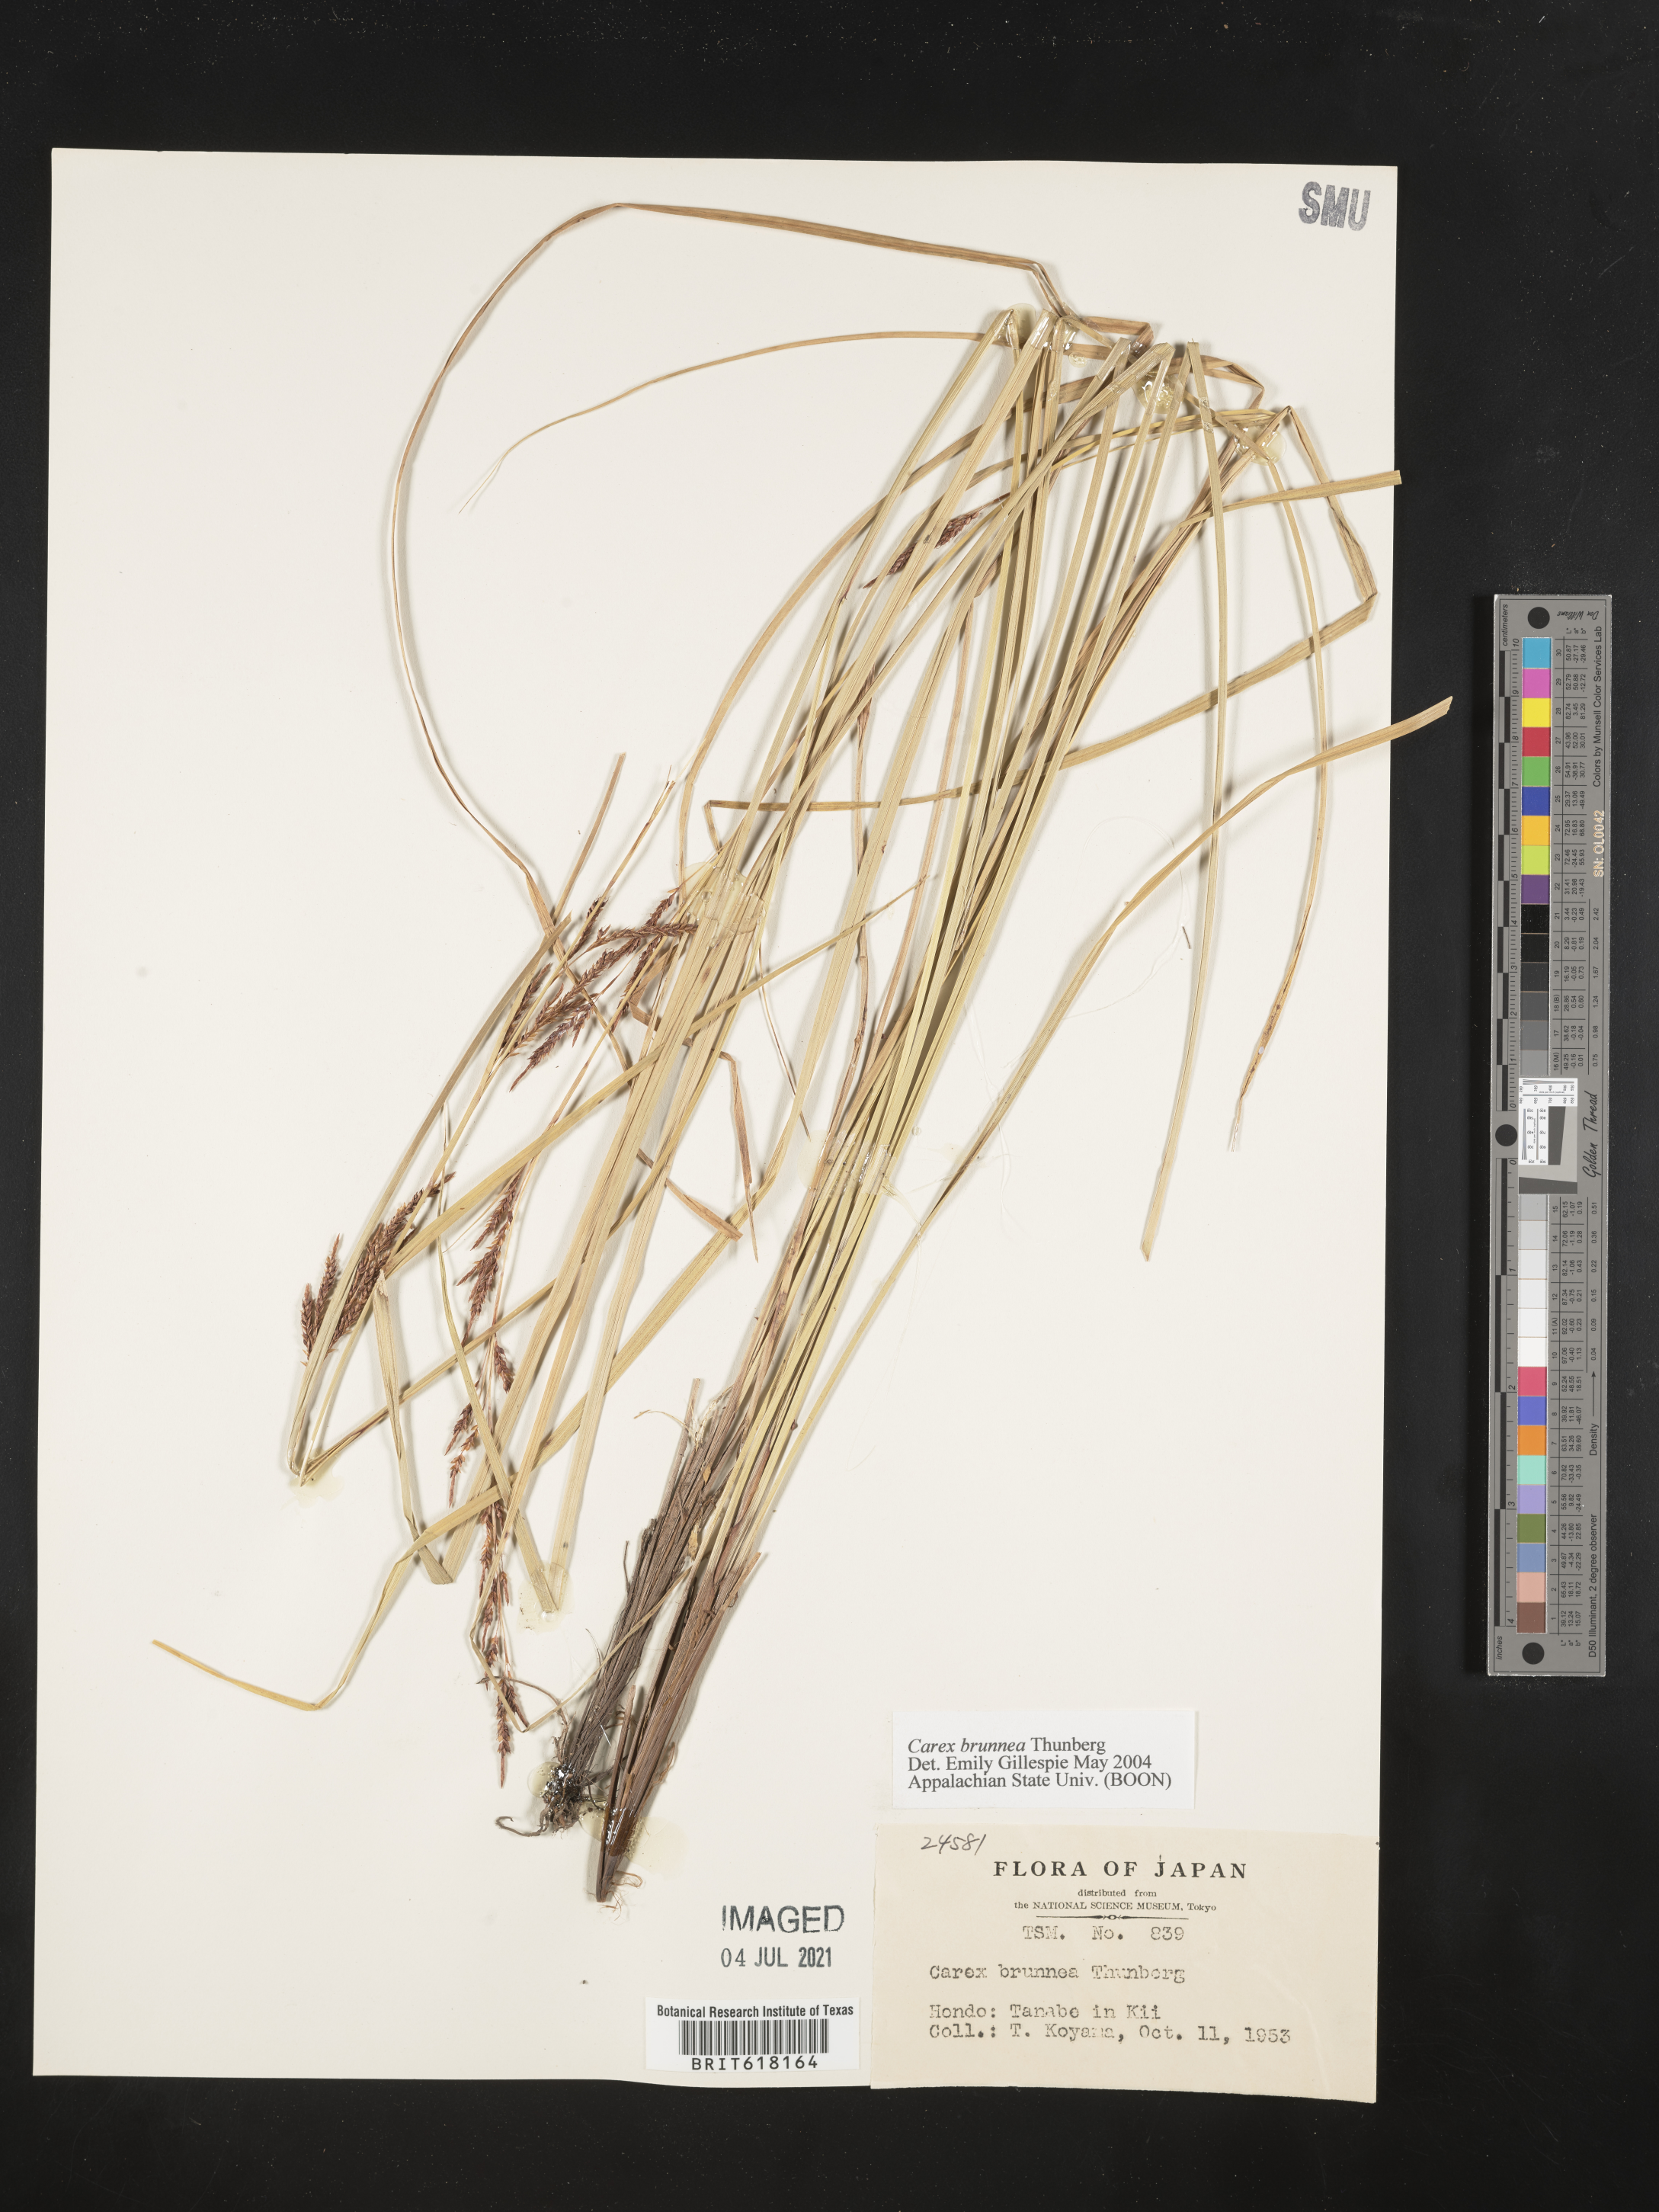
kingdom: Plantae
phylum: Tracheophyta
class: Liliopsida
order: Poales
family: Cyperaceae
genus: Carex
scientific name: Carex brunnea
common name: Greater brown sedge
